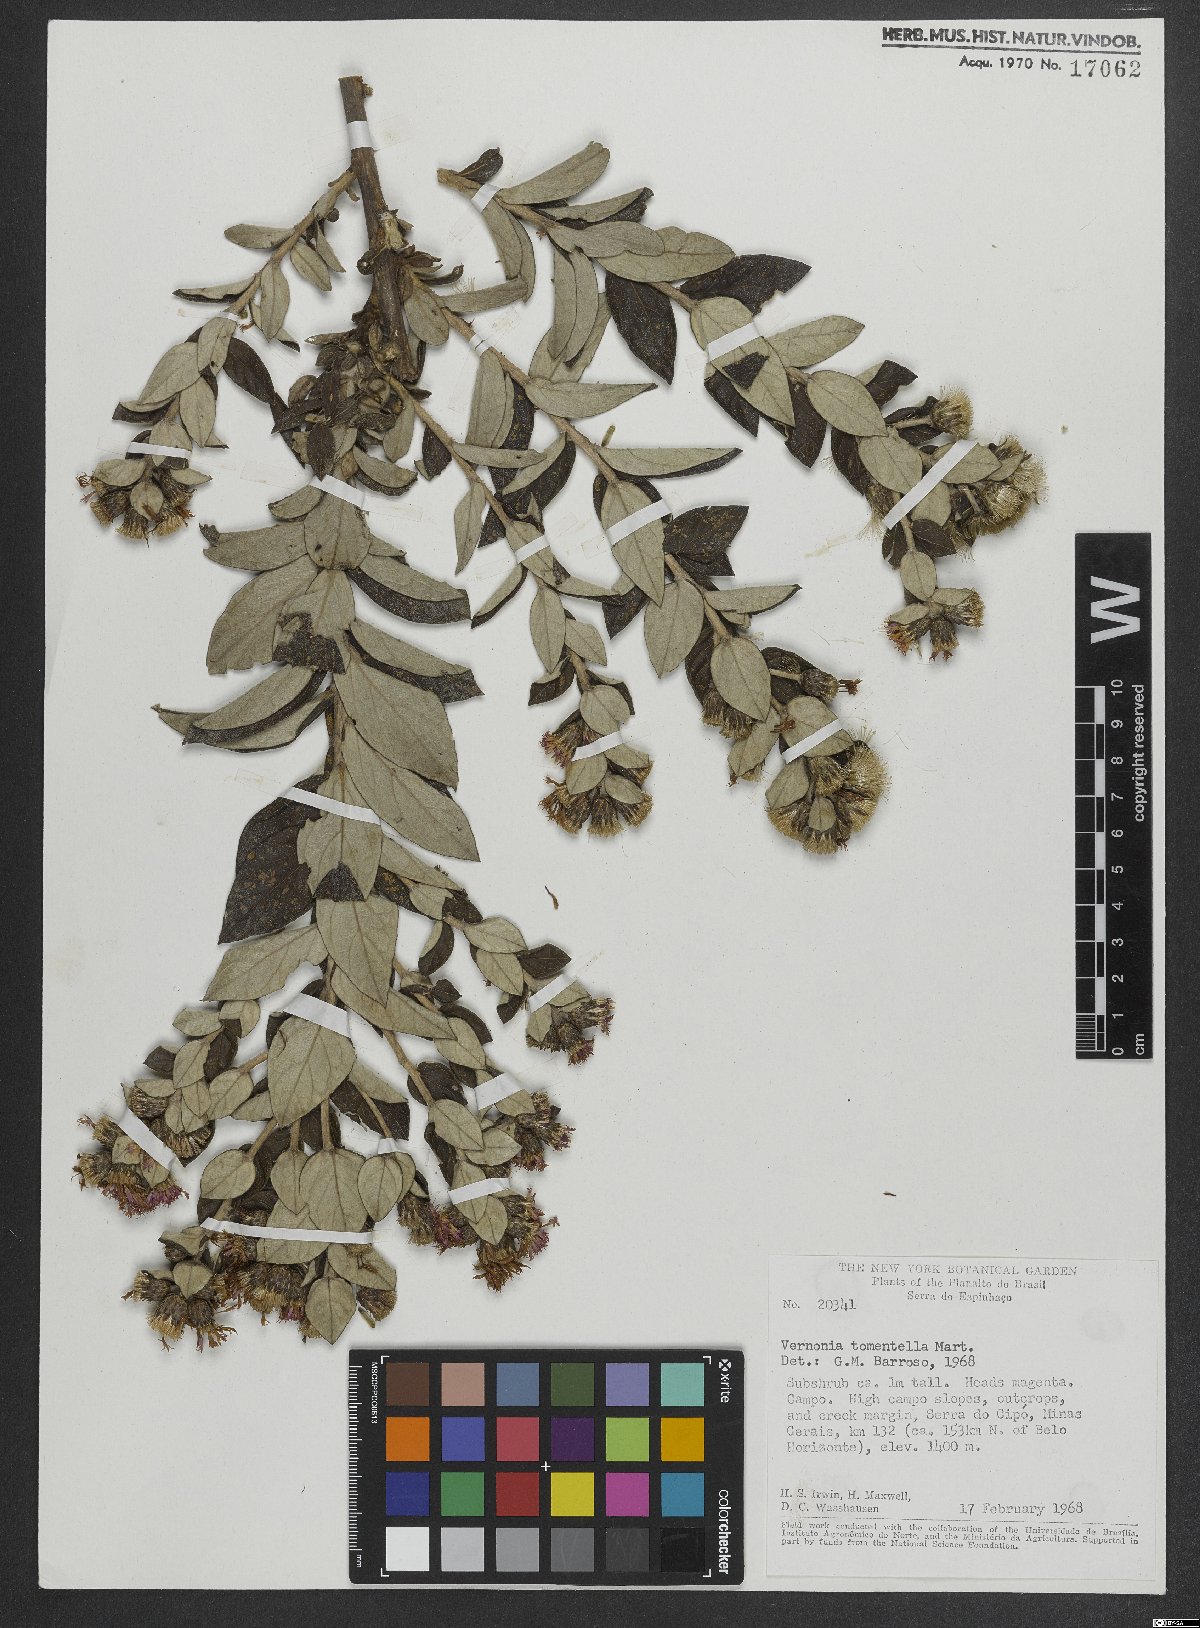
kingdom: Plantae
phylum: Tracheophyta
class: Magnoliopsida
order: Asterales
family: Asteraceae
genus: Lessingianthus
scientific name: Lessingianthus tomentellus
